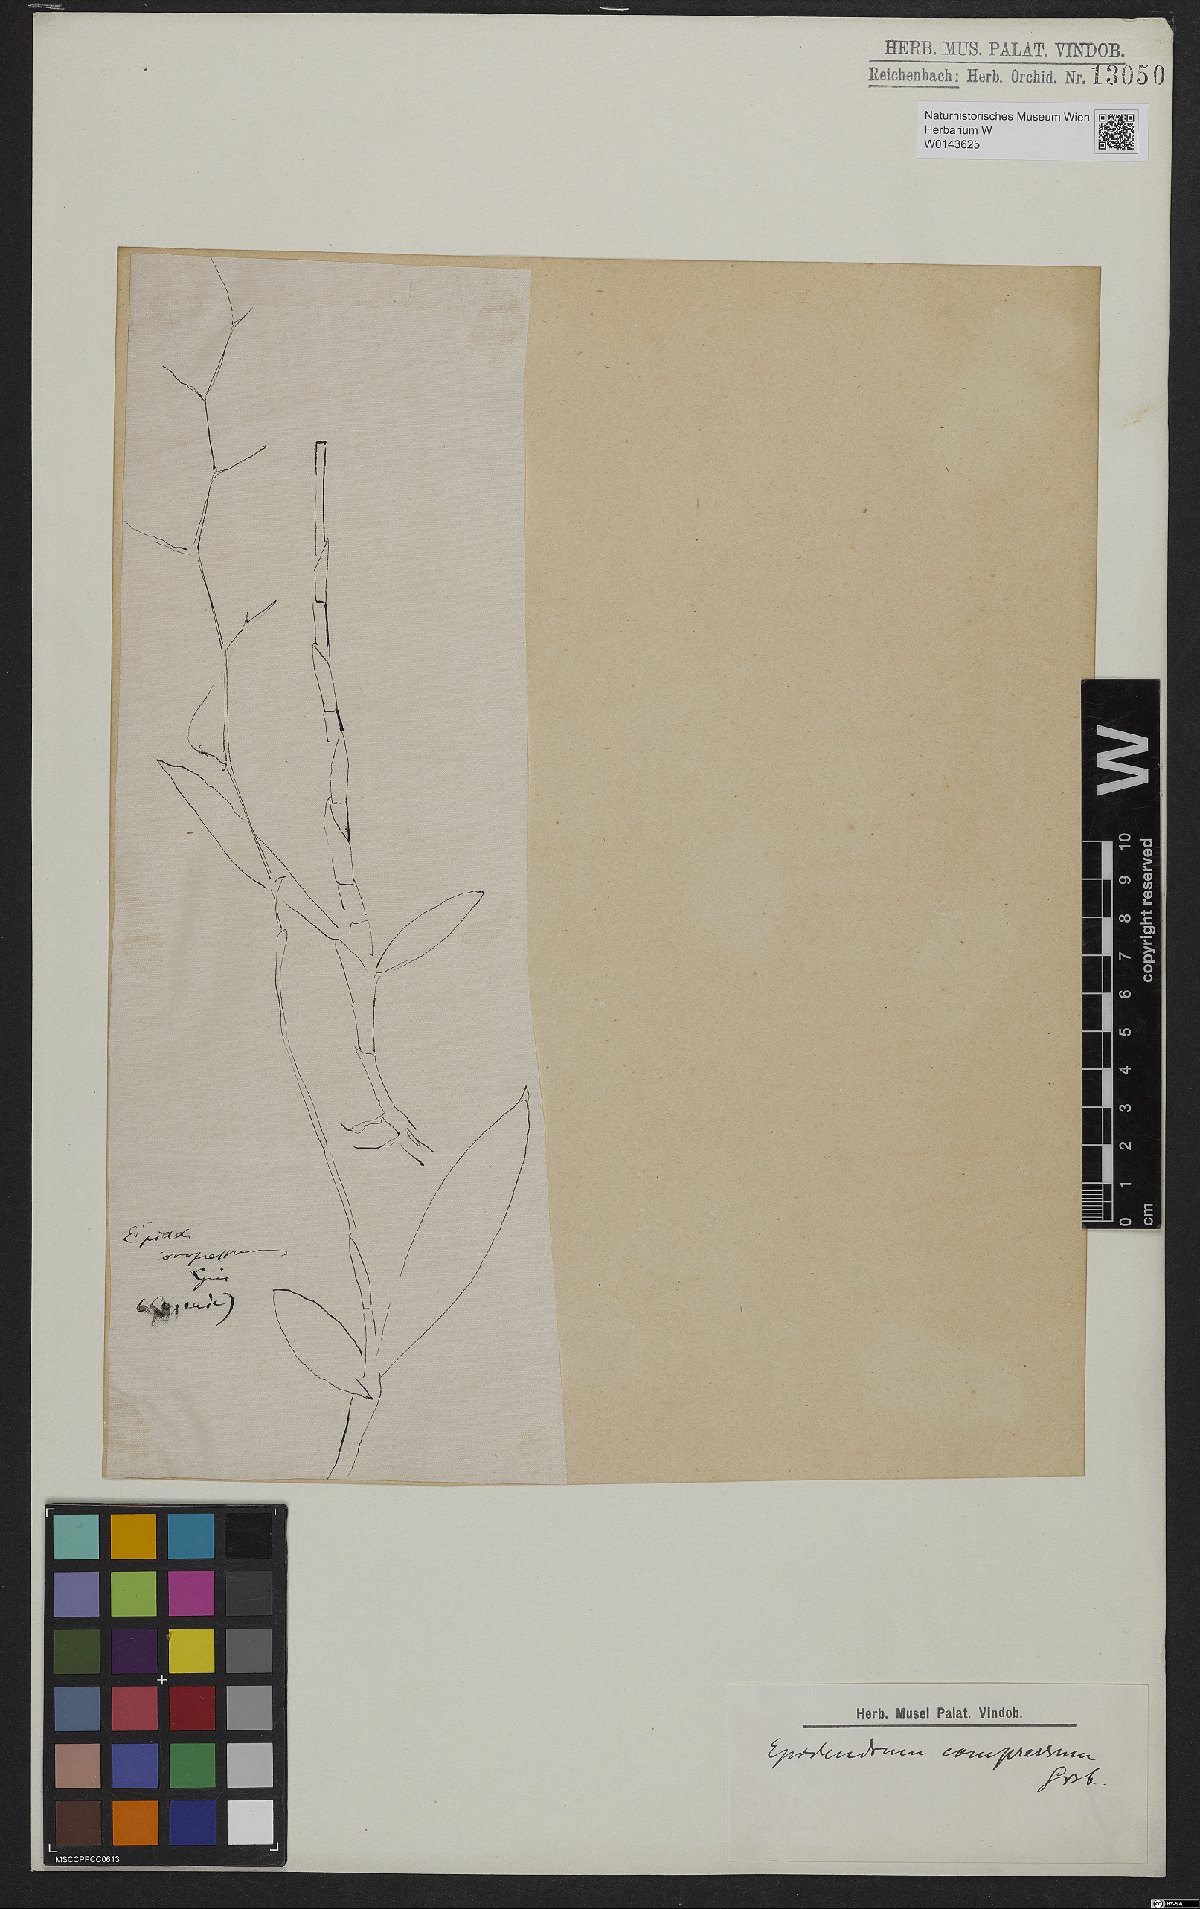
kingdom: Plantae
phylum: Tracheophyta
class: Liliopsida
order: Asparagales
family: Orchidaceae
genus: Epidendrum
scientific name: Epidendrum compressum
